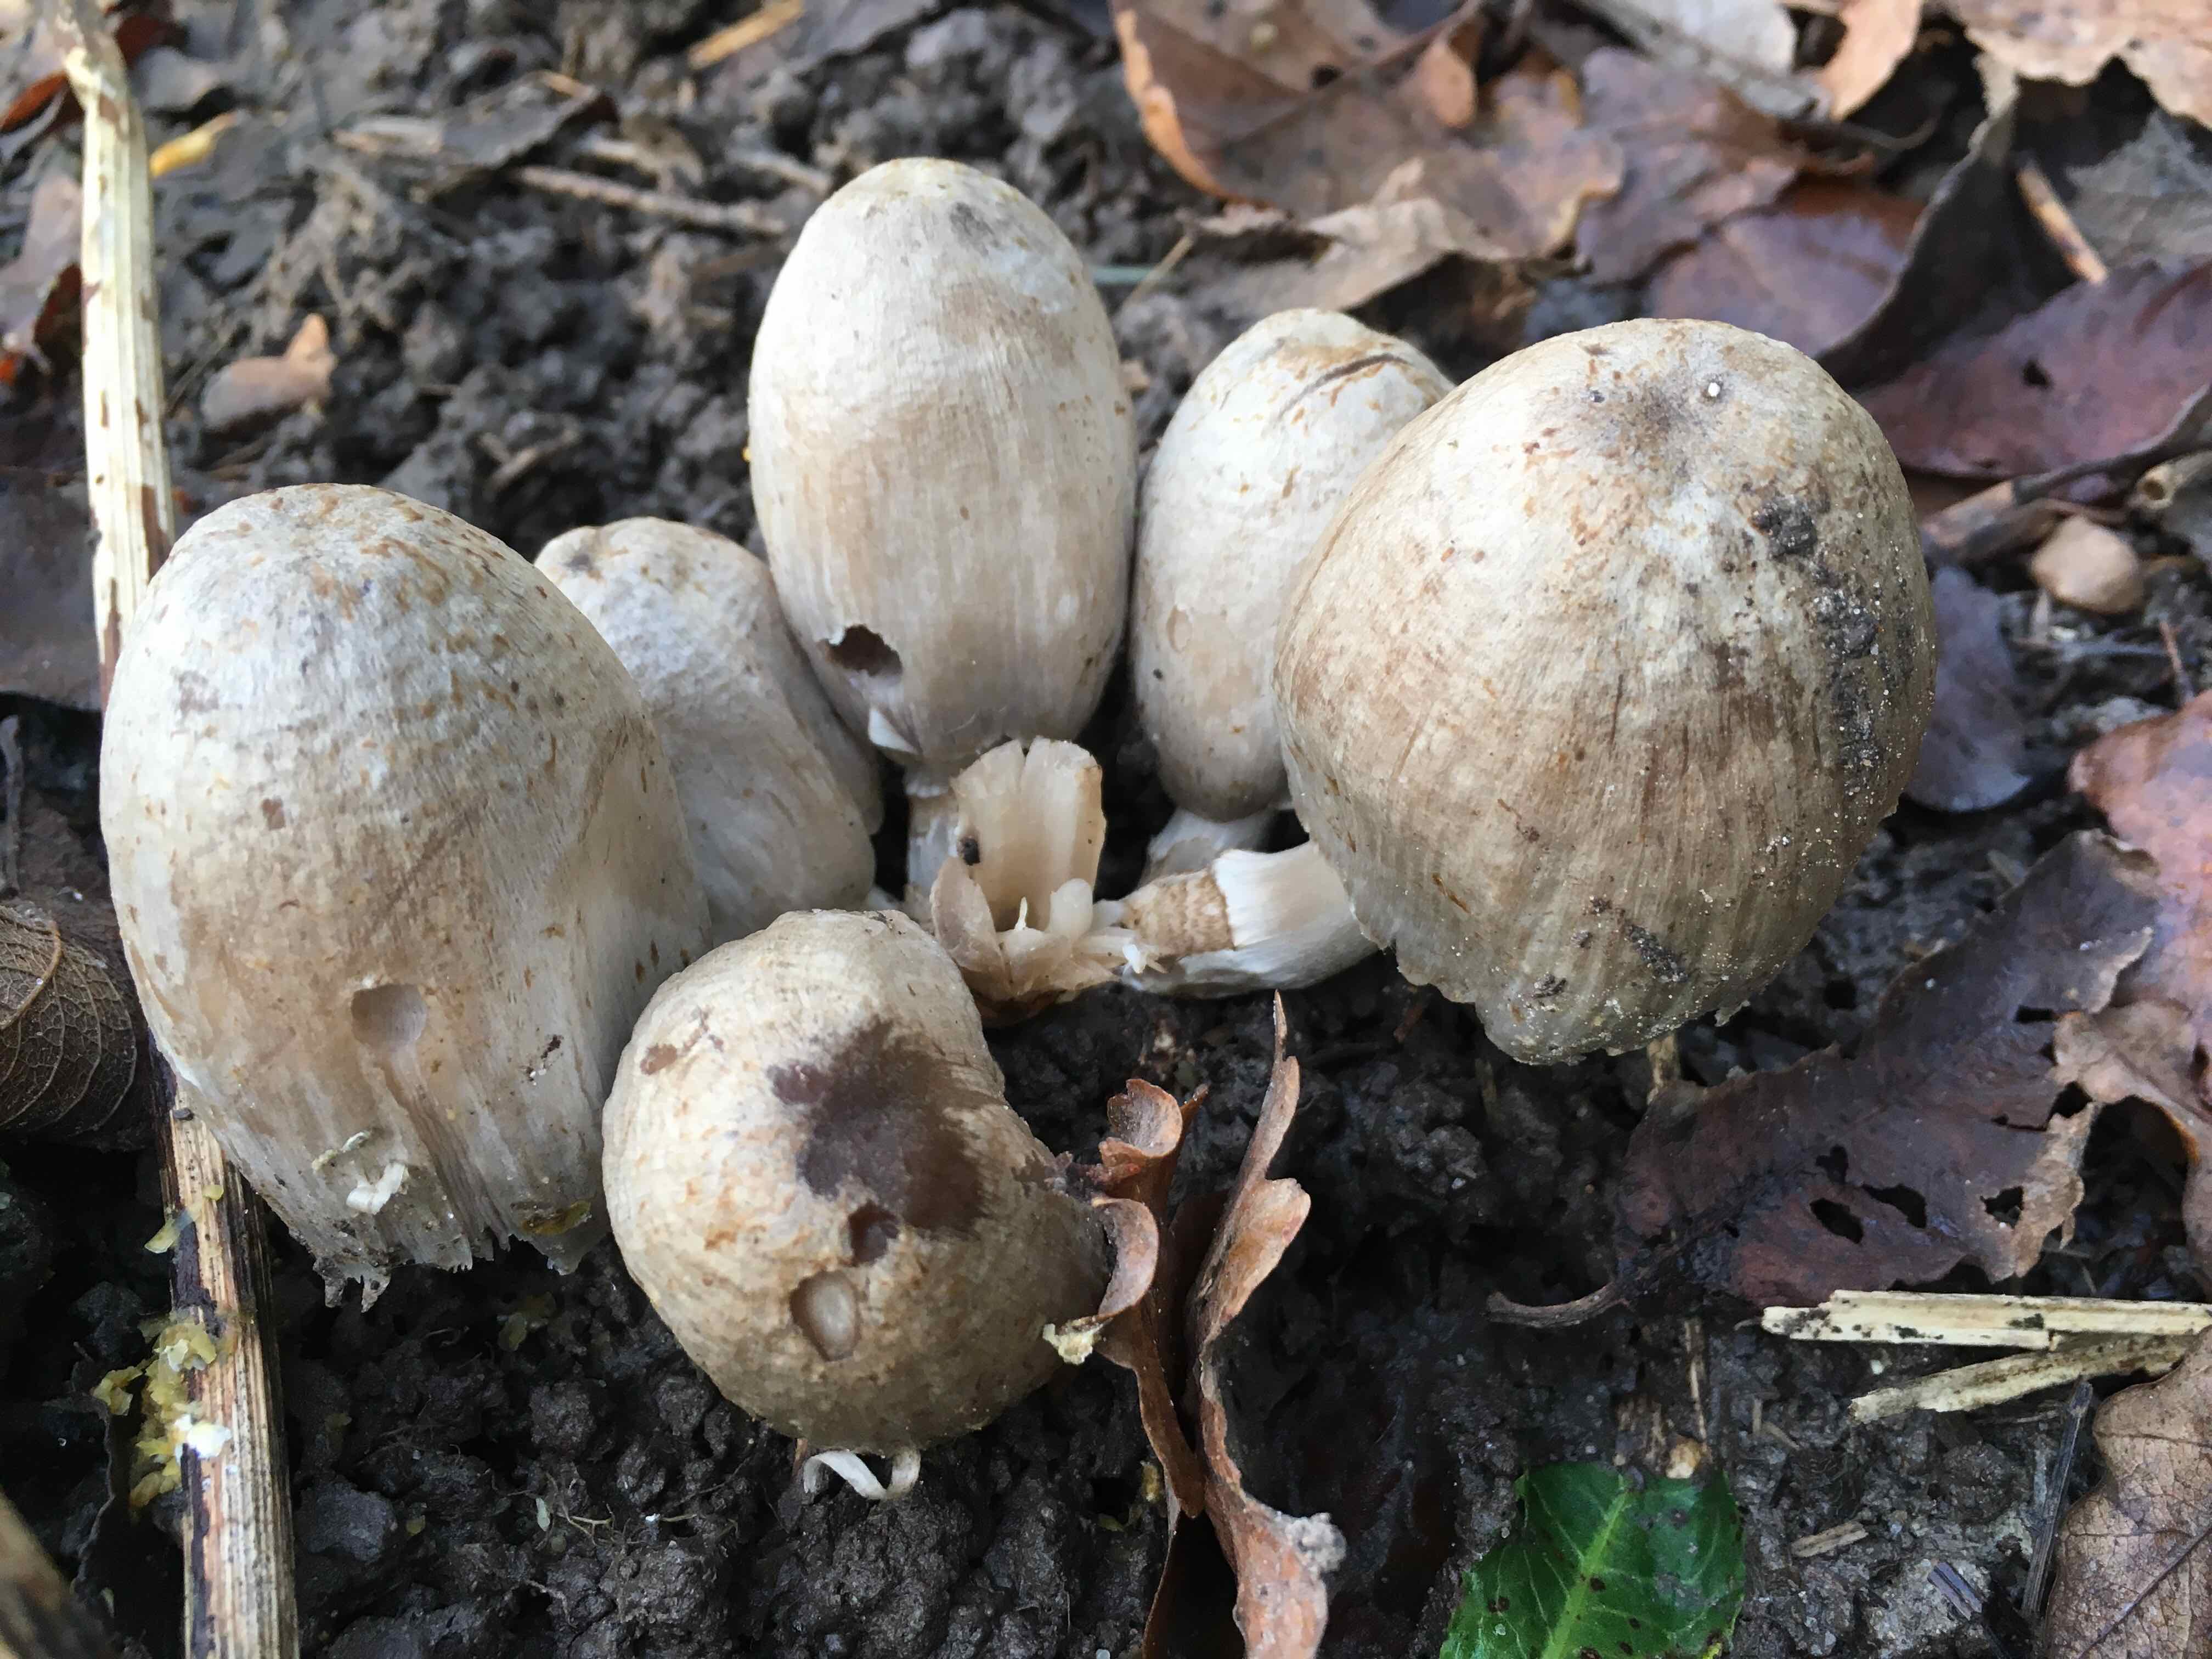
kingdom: Fungi
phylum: Basidiomycota
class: Agaricomycetes
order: Agaricales
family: Psathyrellaceae
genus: Coprinopsis
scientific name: Coprinopsis atramentaria
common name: almindelig blækhat
